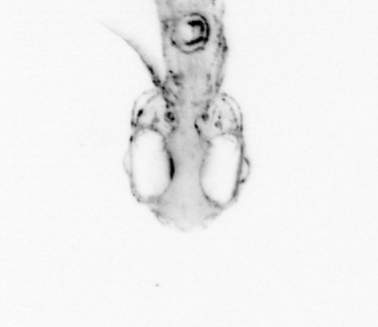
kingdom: Animalia
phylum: Chordata
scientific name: Chordata
